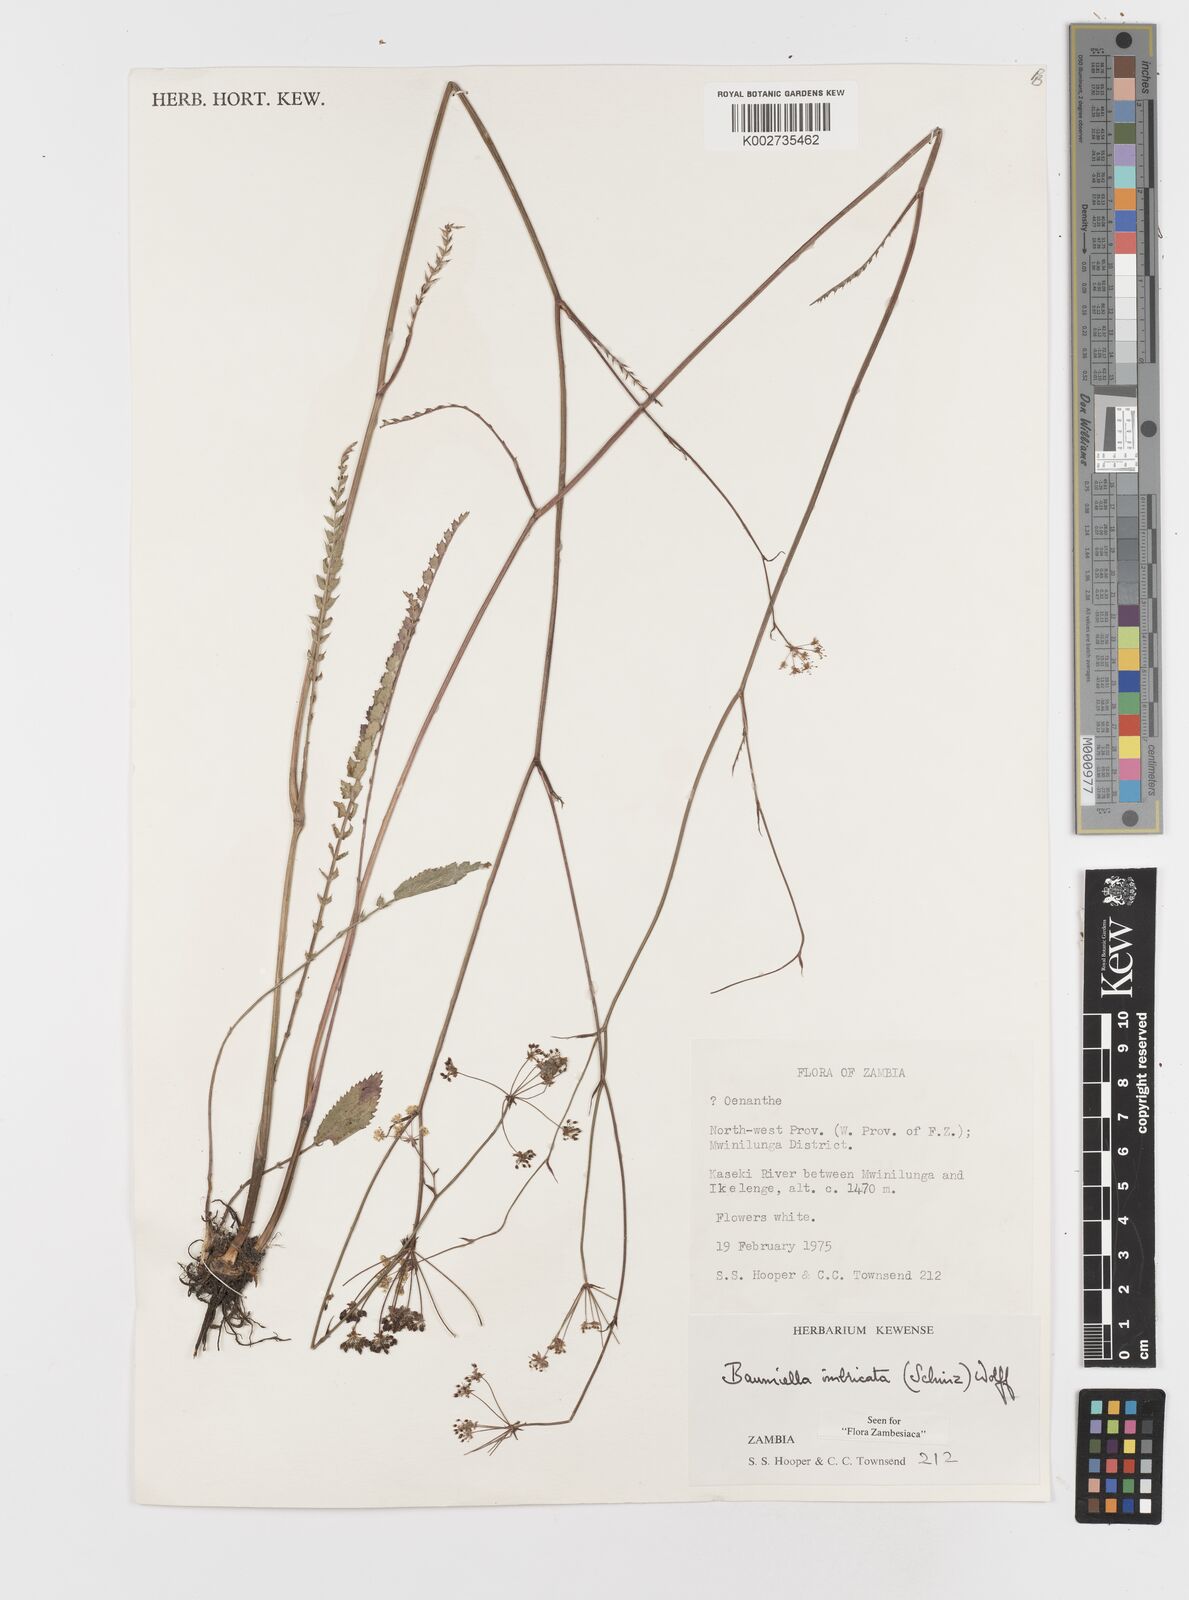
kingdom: Plantae
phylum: Tracheophyta
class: Magnoliopsida
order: Apiales
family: Apiaceae
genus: Berula
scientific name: Berula imbricata
